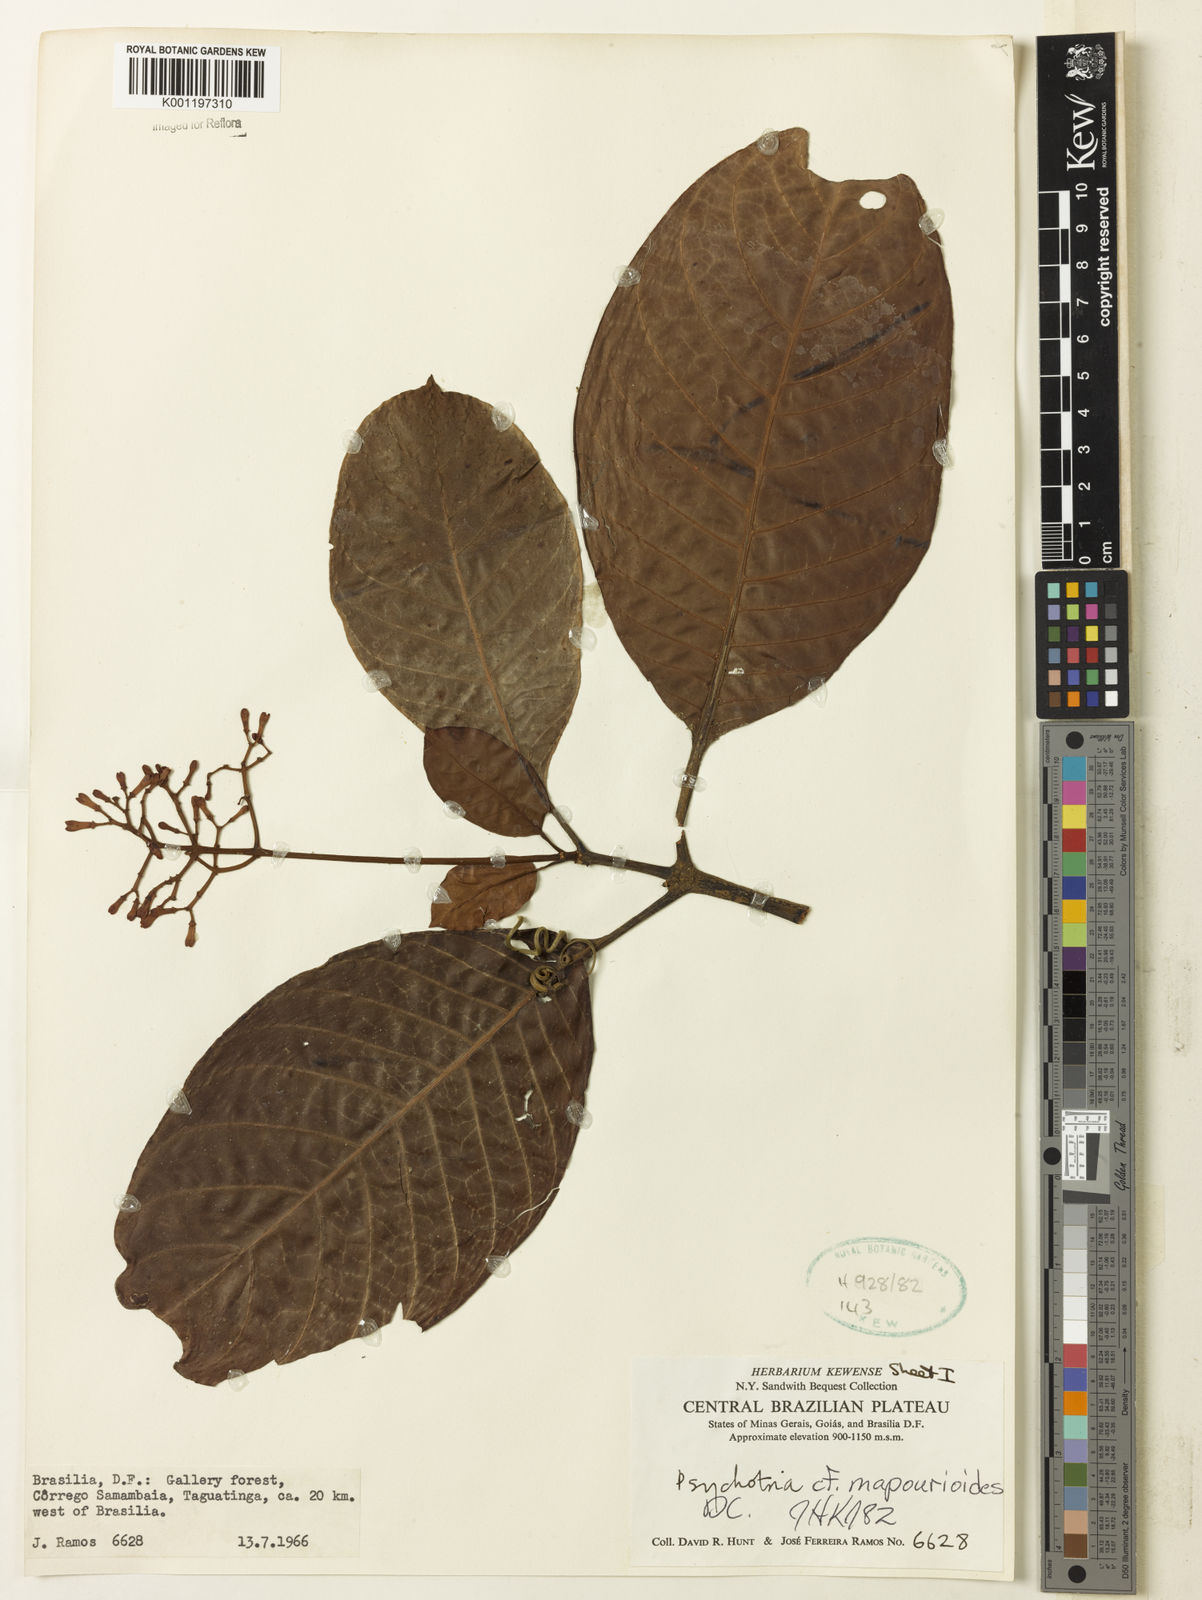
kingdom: Plantae
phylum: Tracheophyta
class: Magnoliopsida
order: Gentianales
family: Rubiaceae
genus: Psychotria
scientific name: Psychotria pedunculosa
